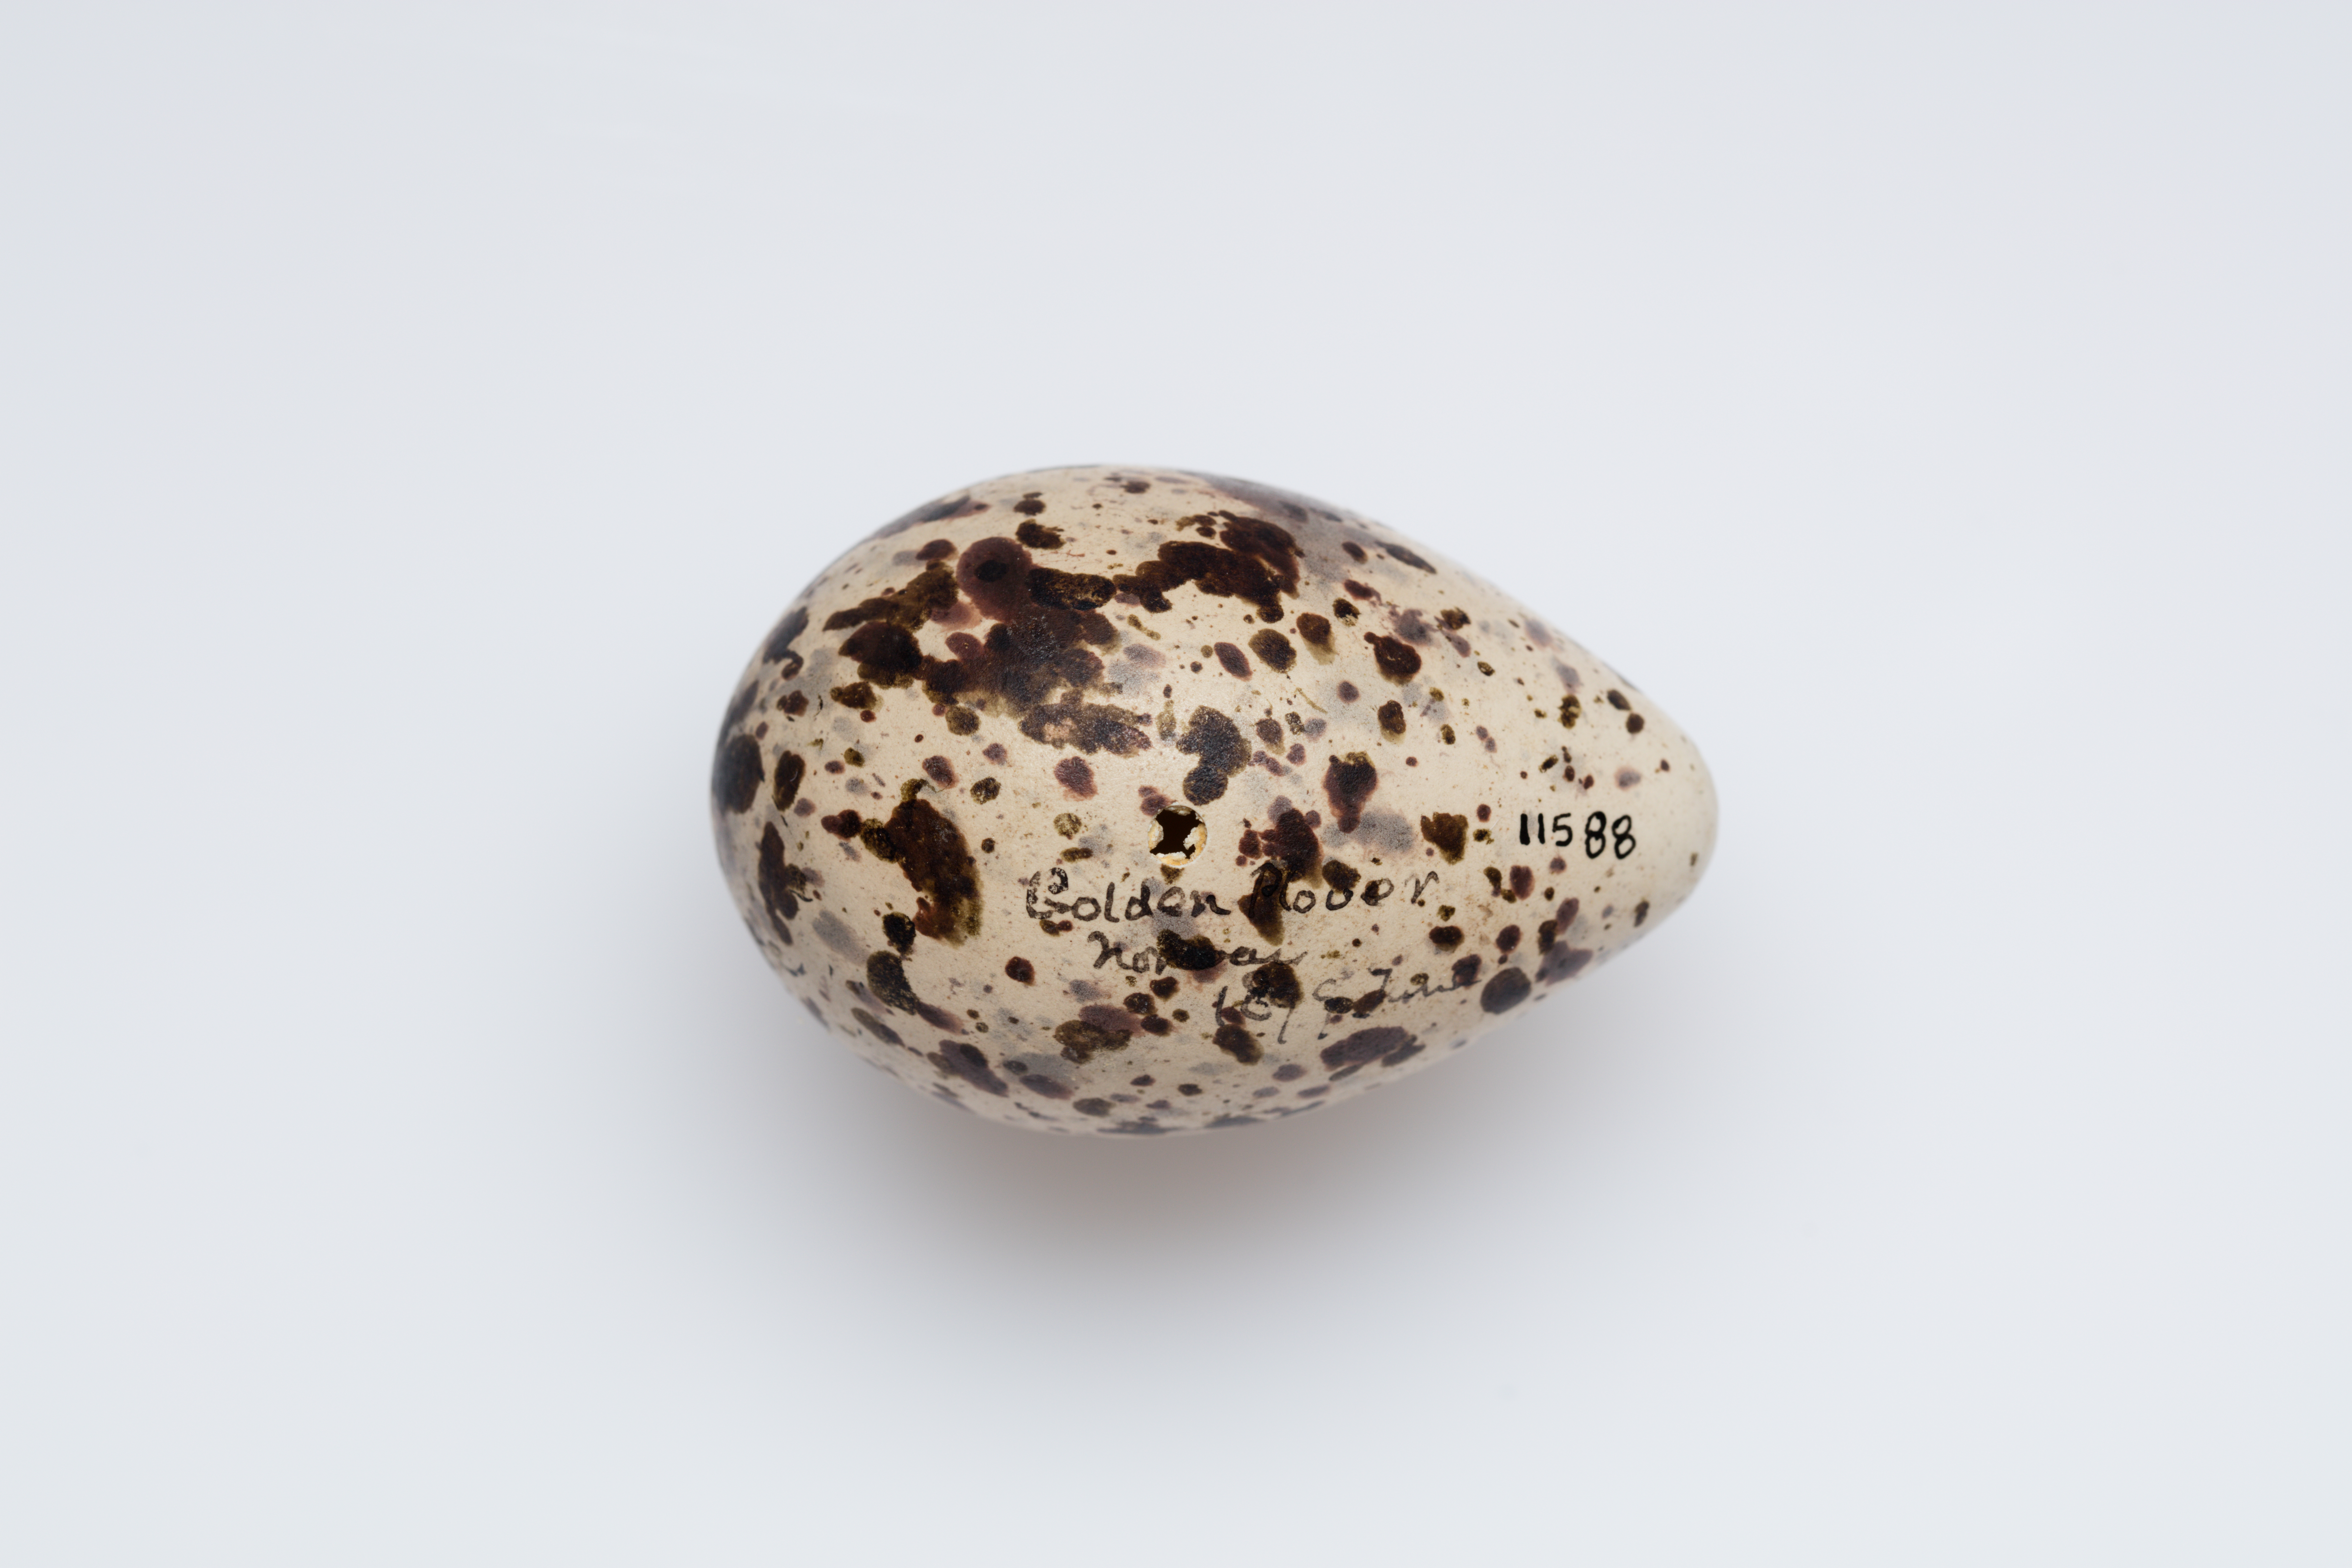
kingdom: Animalia
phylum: Chordata
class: Aves
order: Charadriiformes
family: Charadriidae
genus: Pluvialis
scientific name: Pluvialis apricaria
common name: European golden plover
